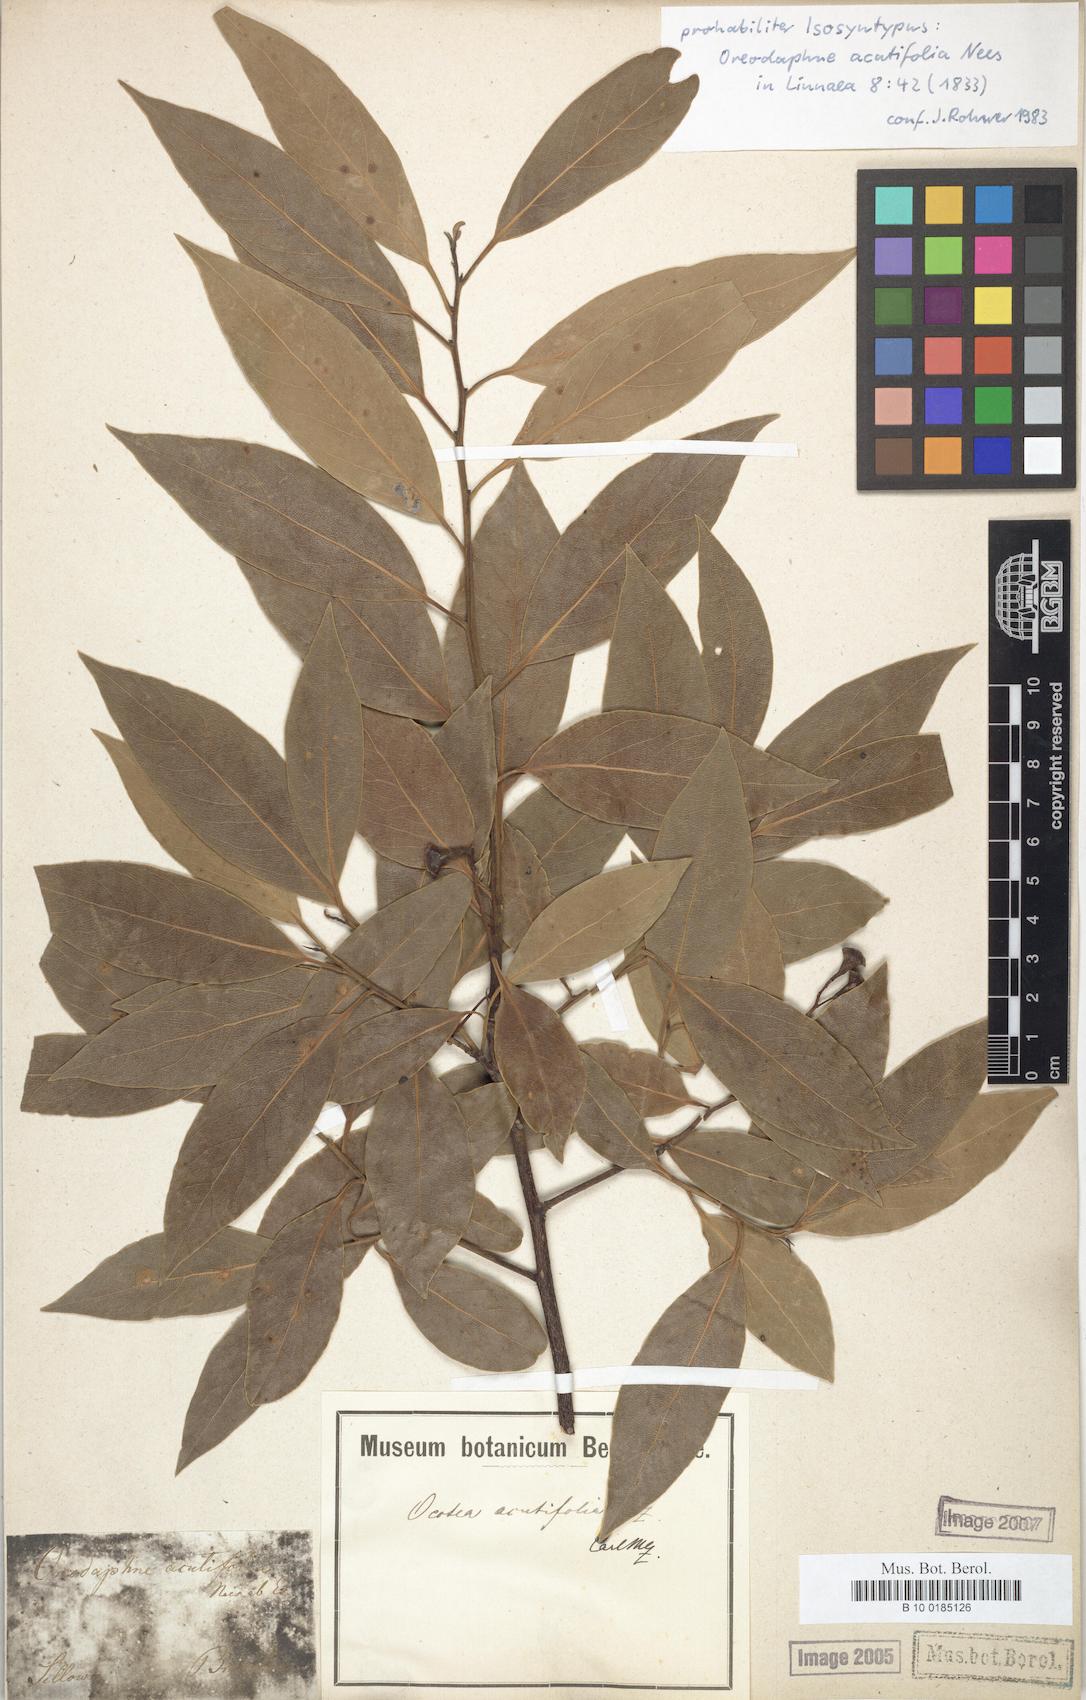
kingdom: Plantae
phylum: Tracheophyta
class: Magnoliopsida
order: Laurales
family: Lauraceae
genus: Ocotea
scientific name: Ocotea acutifolia
